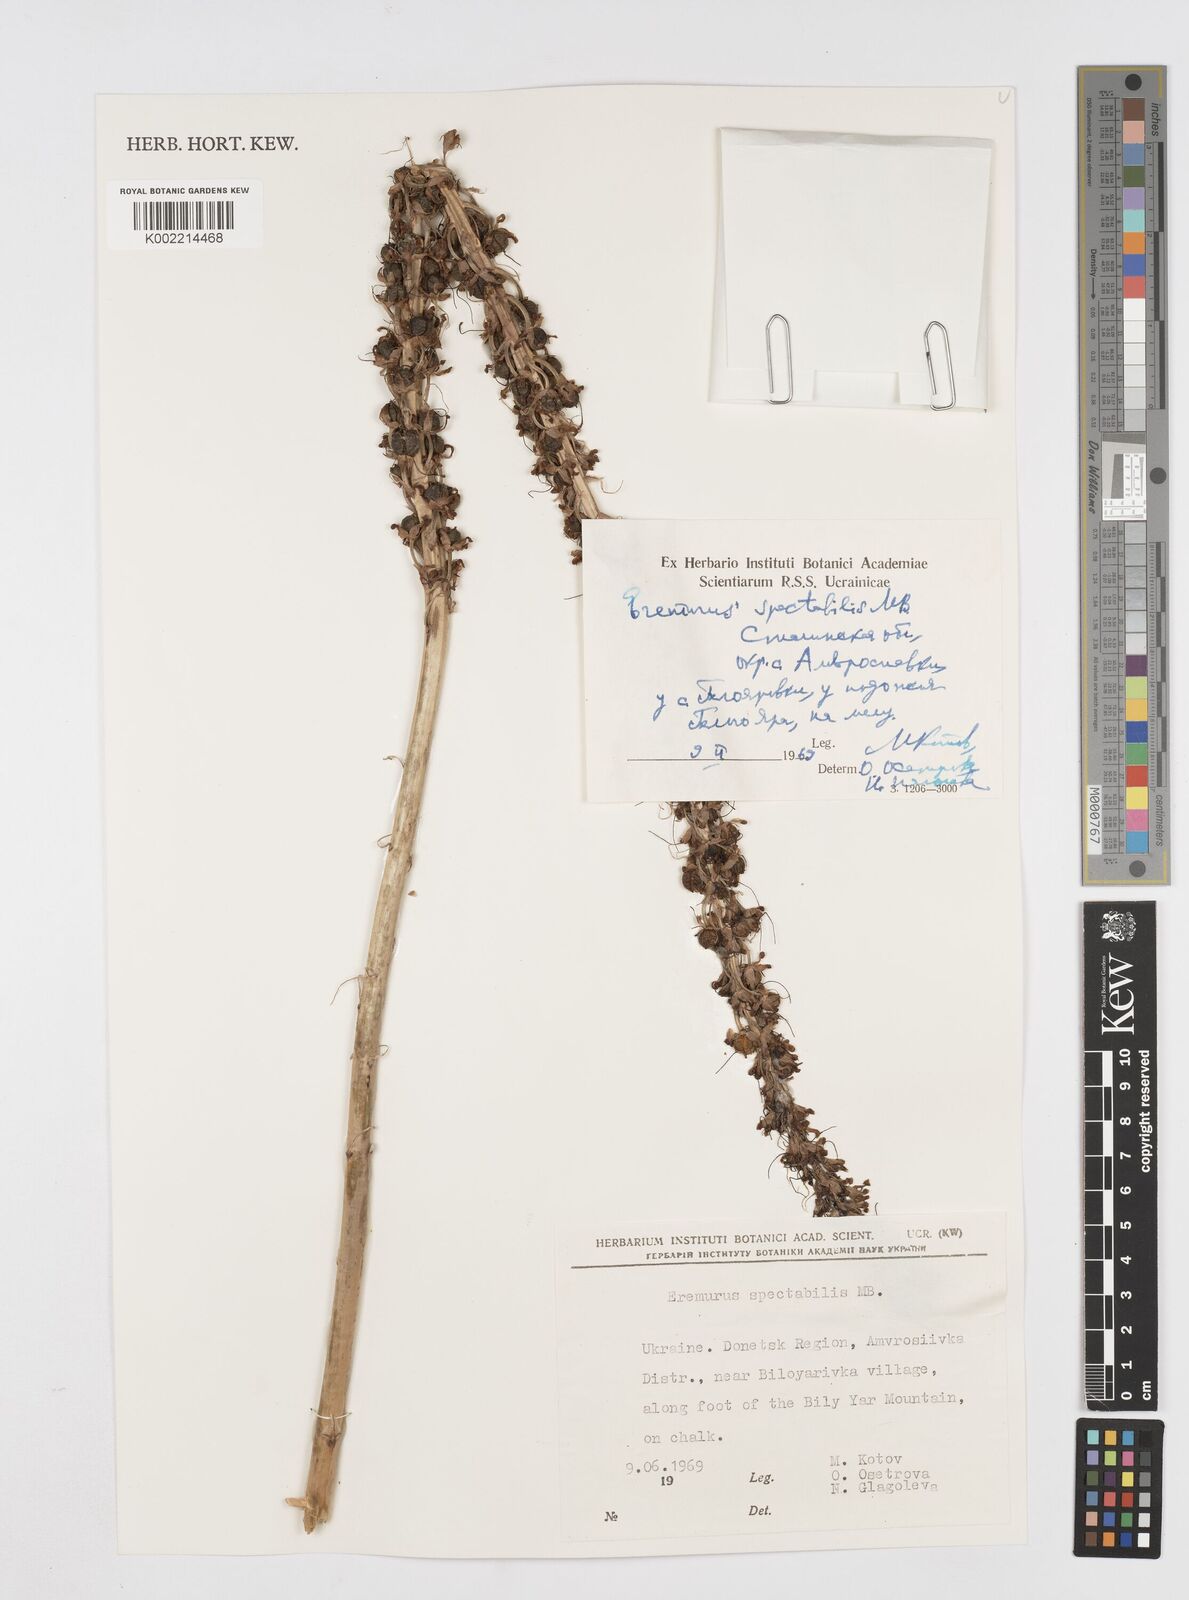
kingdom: Plantae
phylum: Tracheophyta
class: Liliopsida
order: Asparagales
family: Asphodelaceae
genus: Eremurus
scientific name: Eremurus spectabilis
